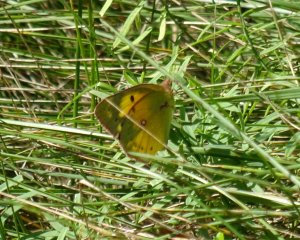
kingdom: Animalia
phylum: Arthropoda
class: Insecta
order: Lepidoptera
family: Pieridae
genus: Colias
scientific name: Colias eurytheme
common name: Orange Sulphur
